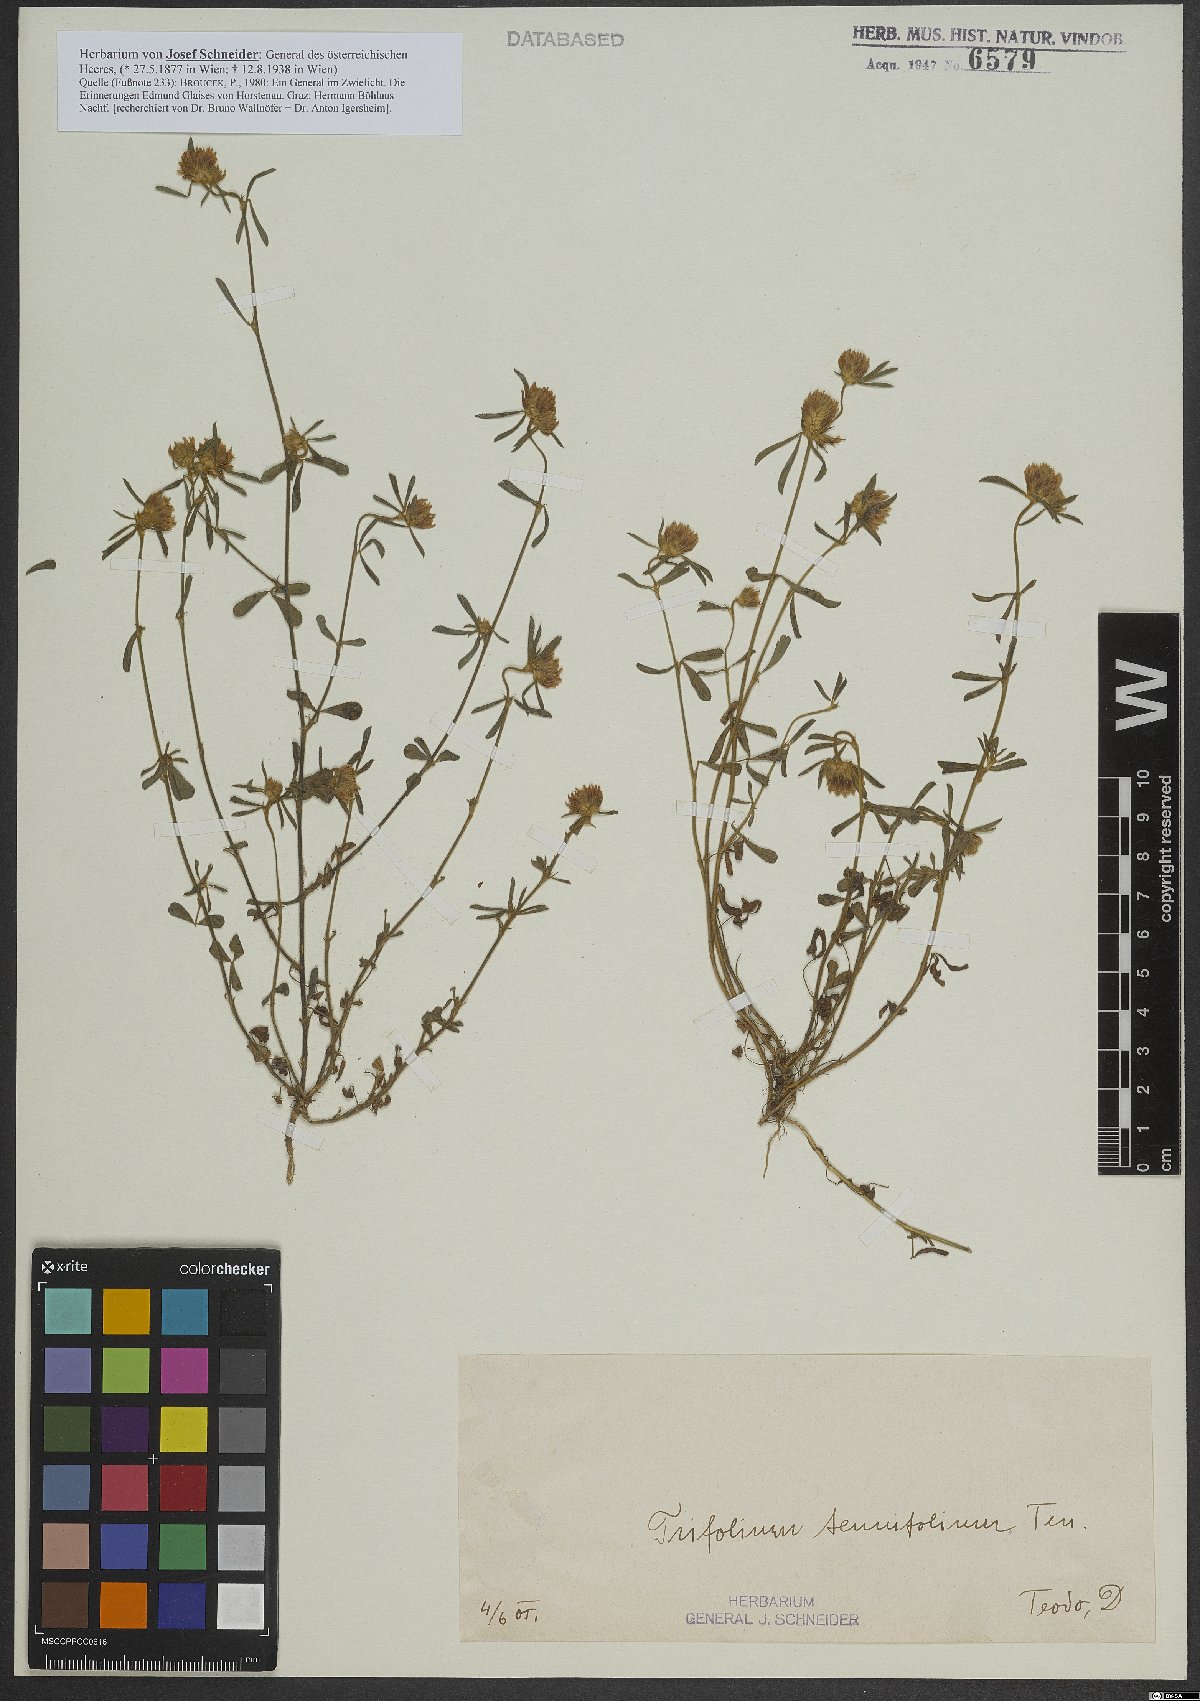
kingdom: Plantae
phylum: Tracheophyta
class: Magnoliopsida
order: Fabales
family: Fabaceae
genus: Trifolium
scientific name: Trifolium tenuifolium
